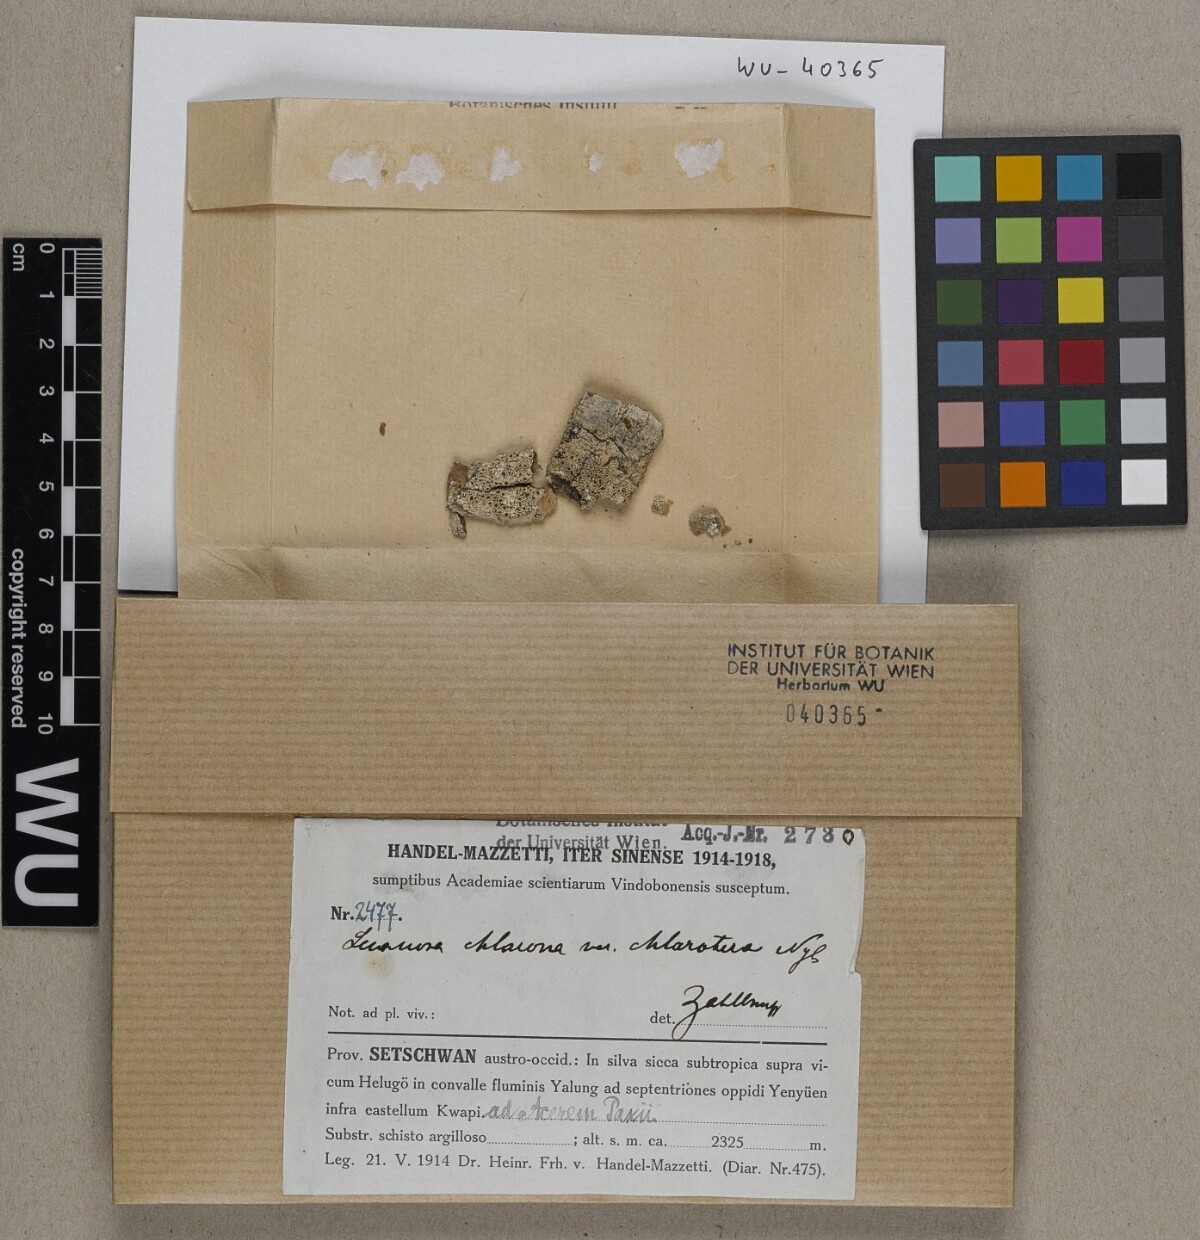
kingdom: Fungi
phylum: Ascomycota
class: Lecanoromycetes
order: Lecanorales
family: Lecanoraceae
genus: Lecanora
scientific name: Lecanora chlarotera
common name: Brown rim-lichen
